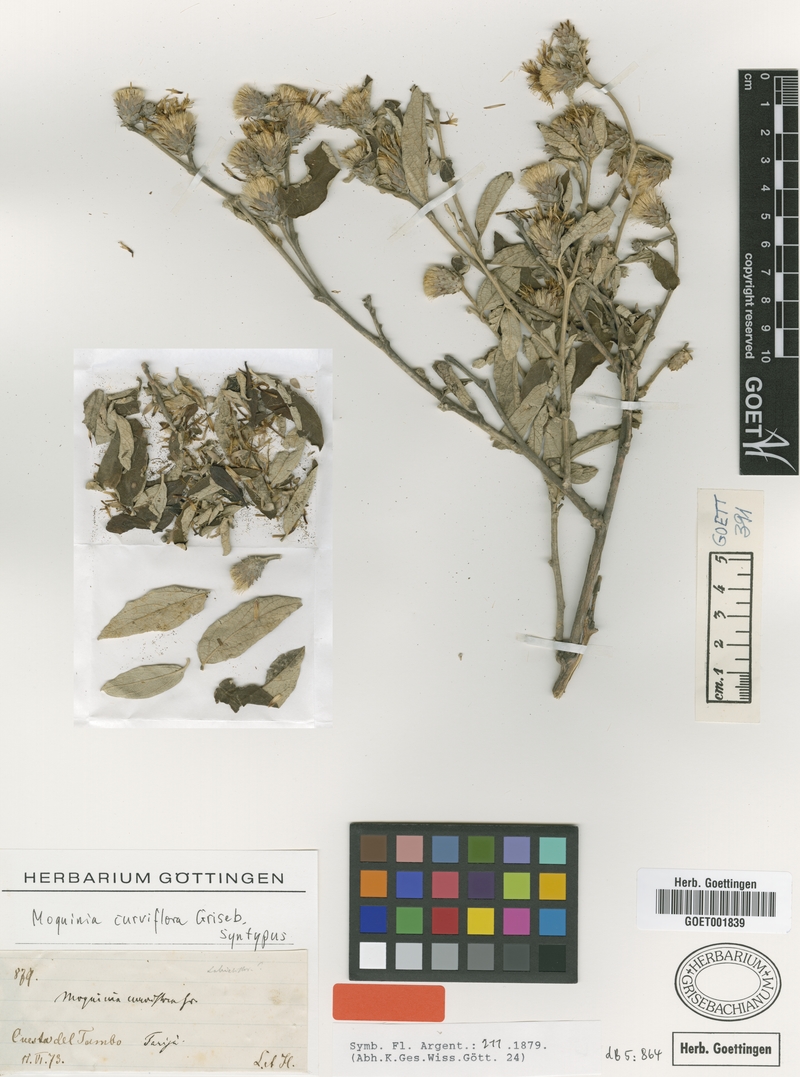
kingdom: Plantae
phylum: Tracheophyta
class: Magnoliopsida
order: Asterales
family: Asteraceae
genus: Gochnatia
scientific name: Gochnatia curviflora
